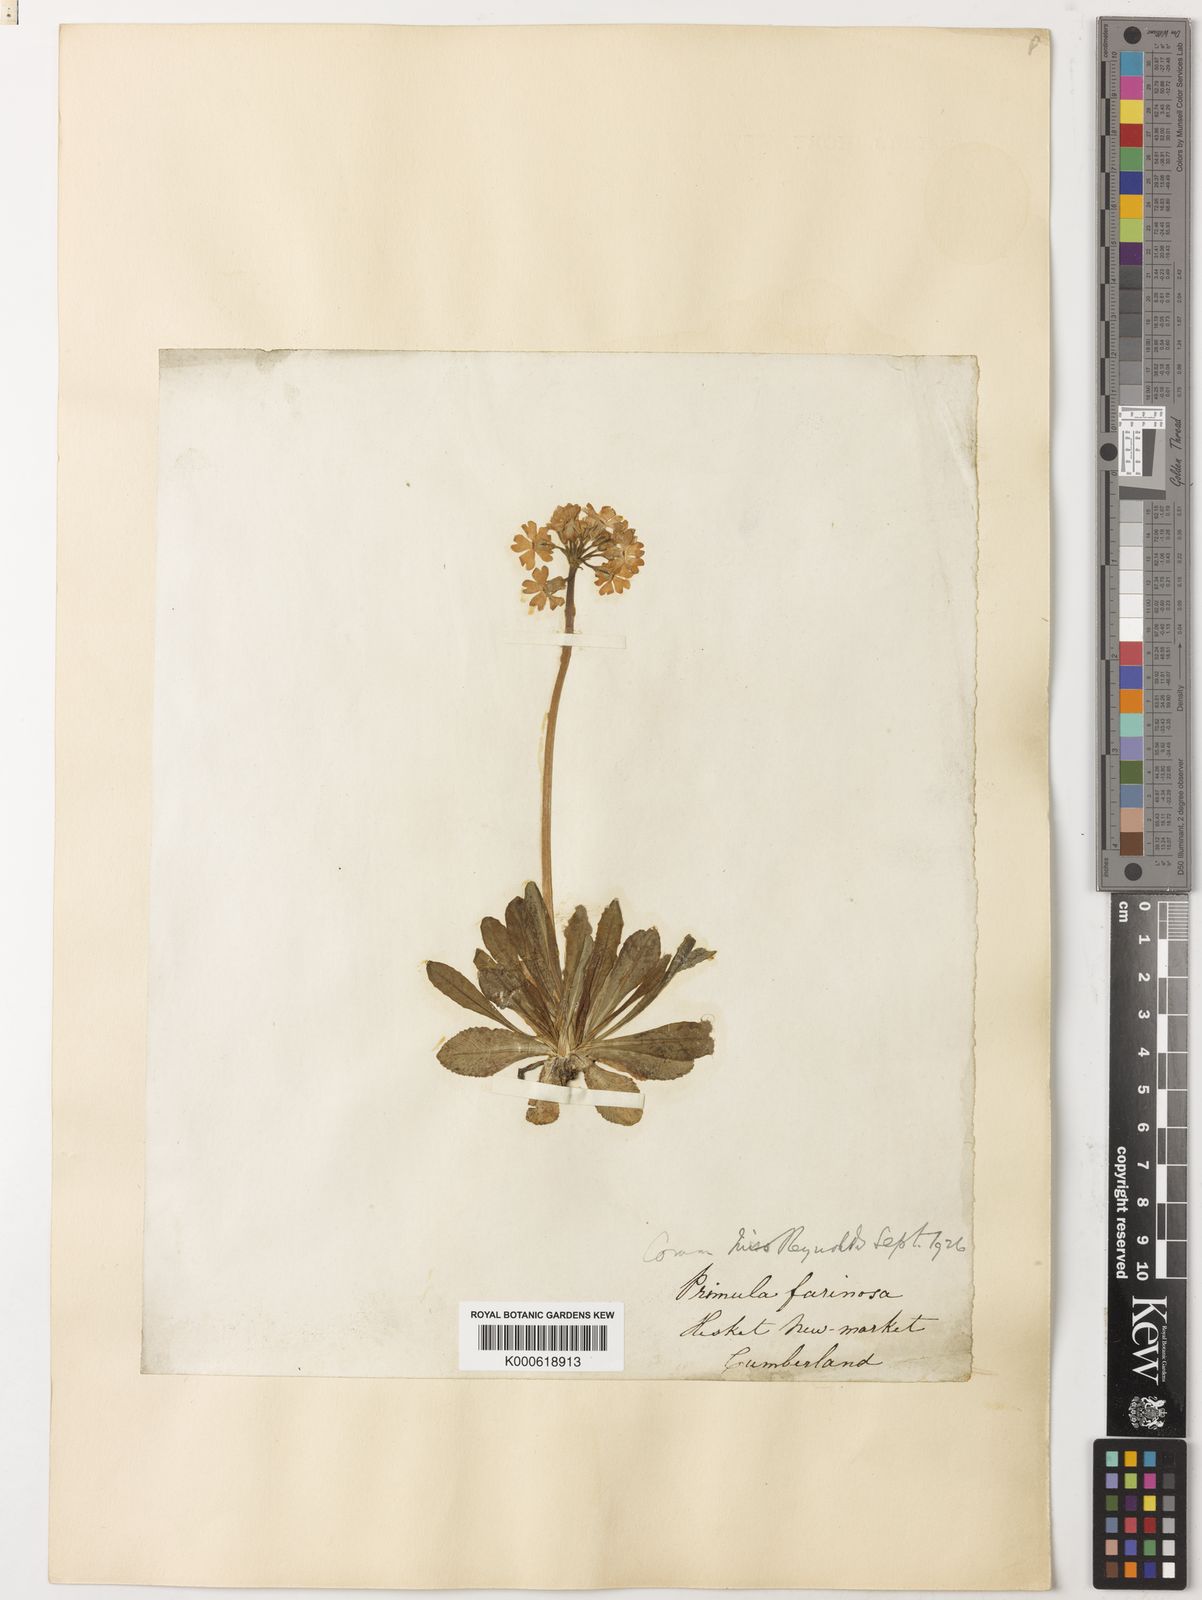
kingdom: Plantae
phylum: Tracheophyta
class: Magnoliopsida
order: Ericales
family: Primulaceae
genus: Primula
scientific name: Primula farinosa
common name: Bird's-eye primrose
